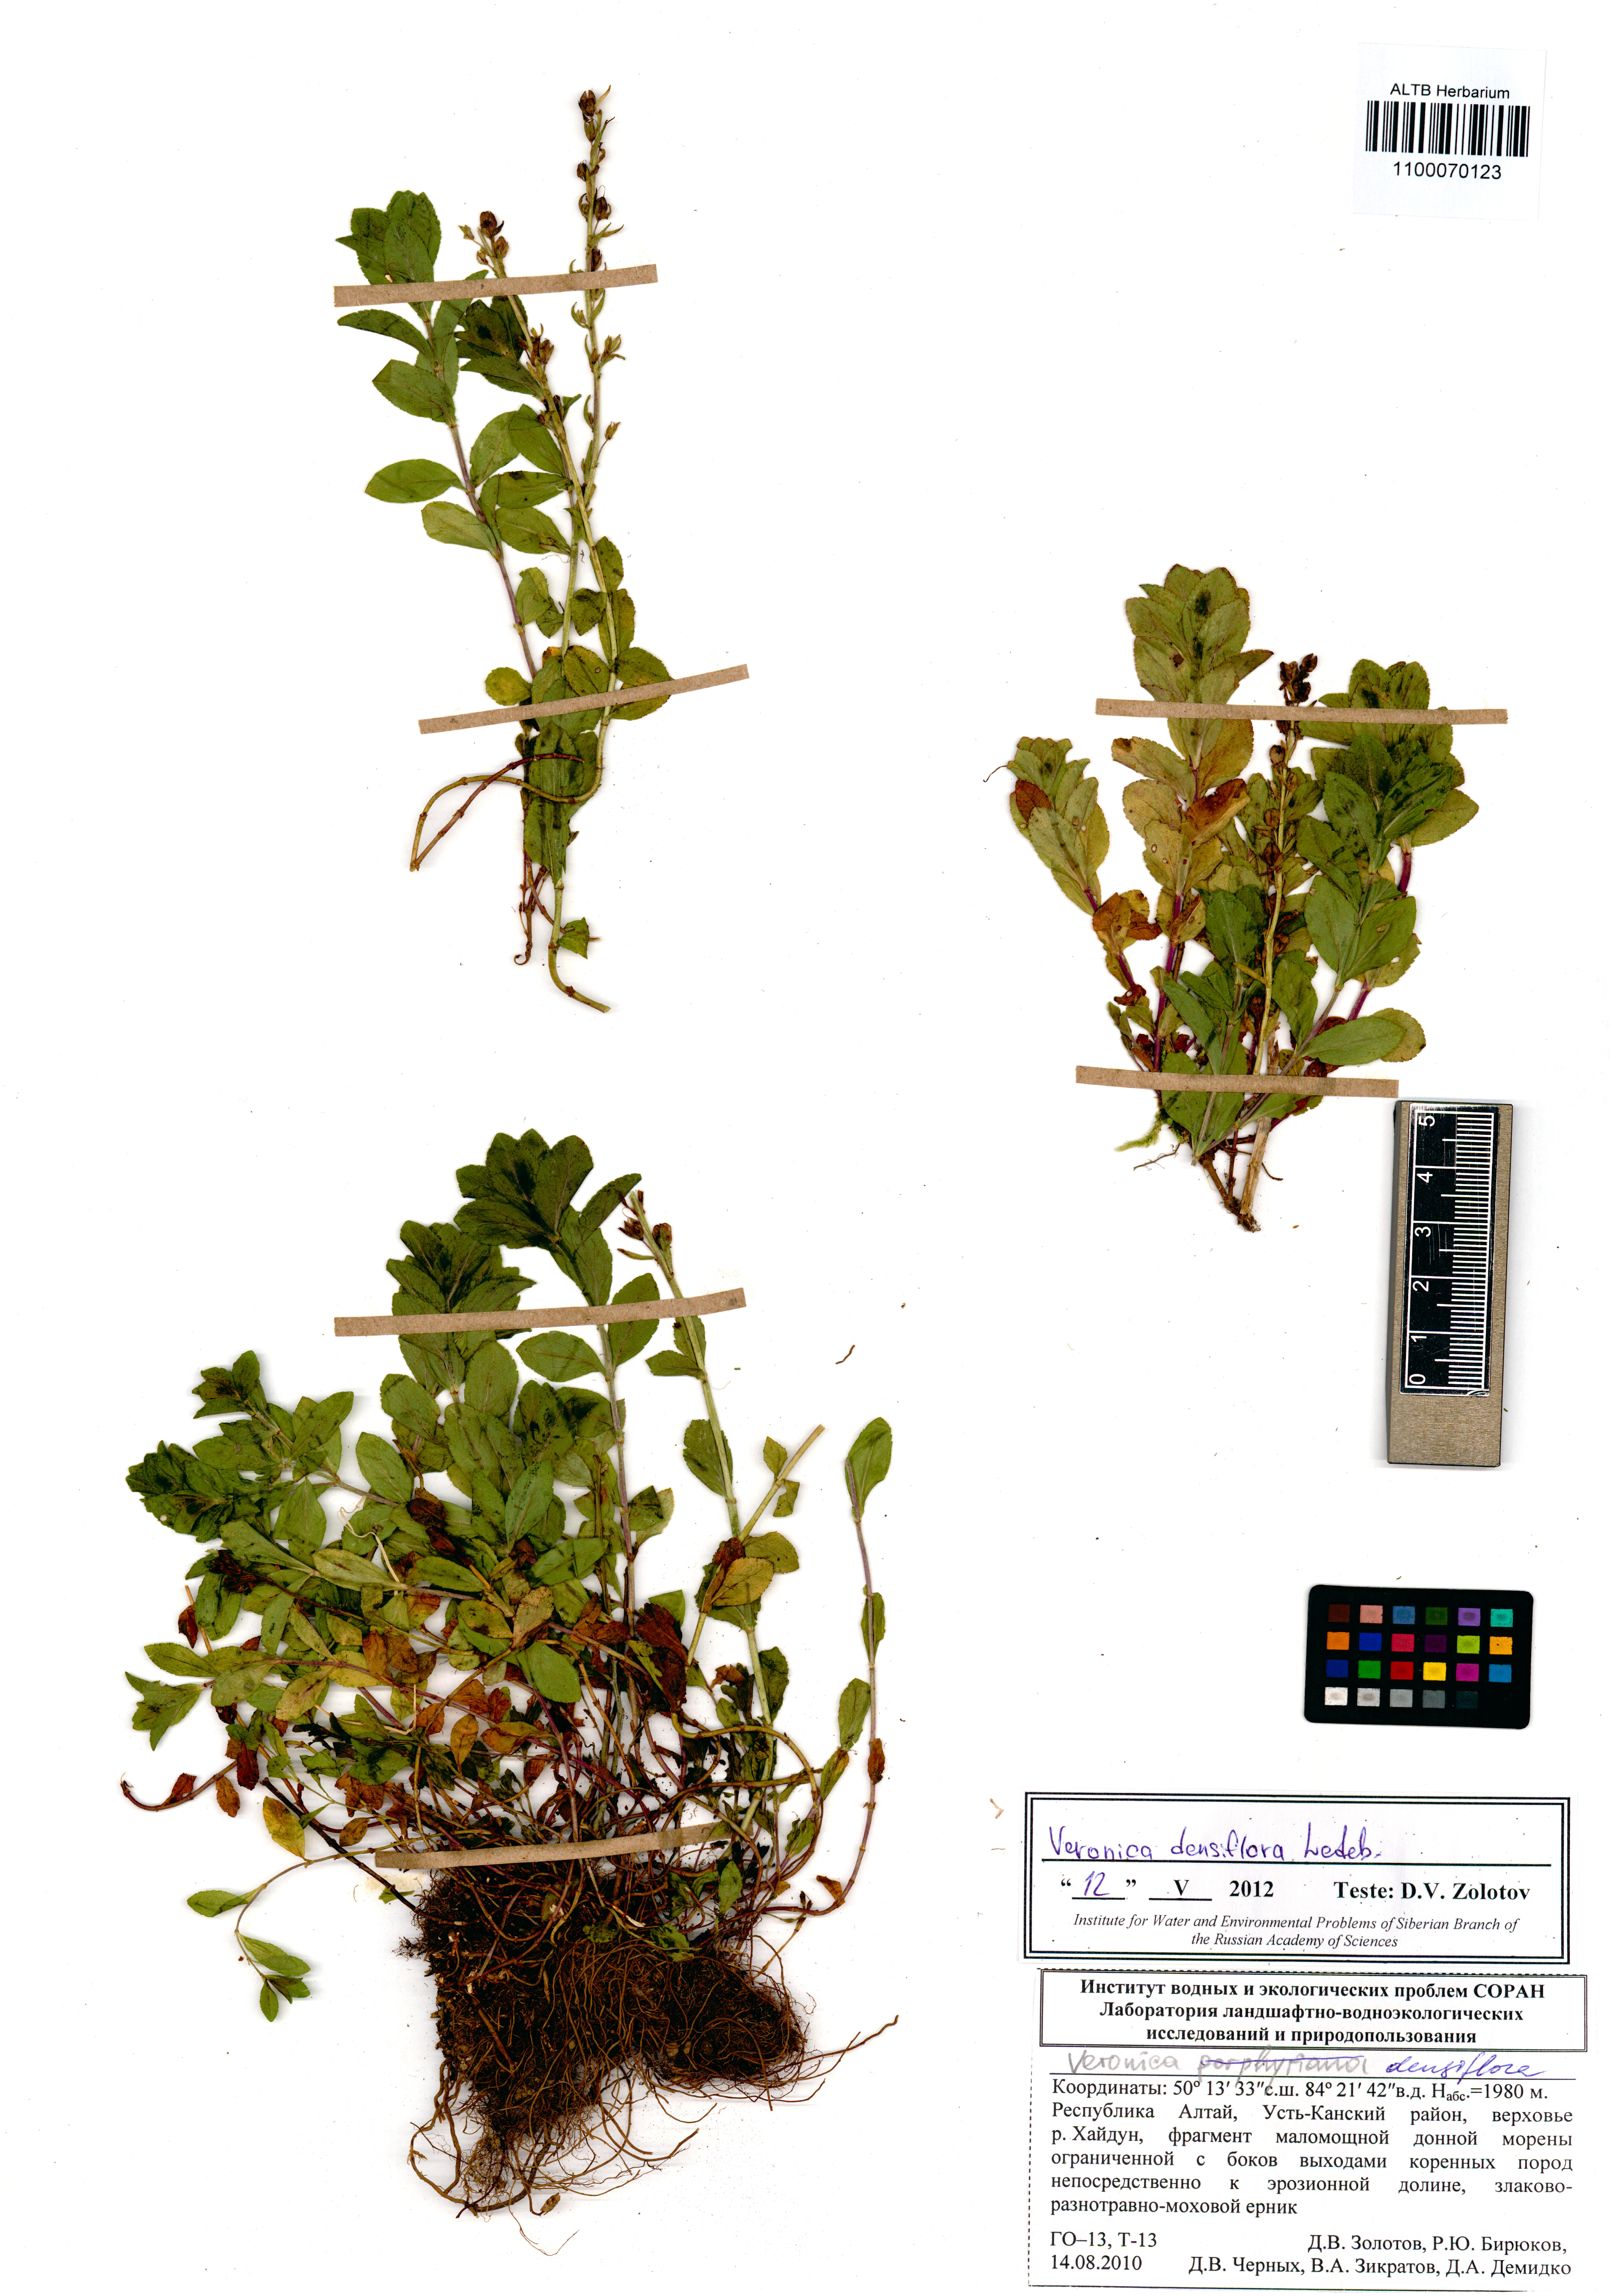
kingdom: Plantae
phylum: Tracheophyta
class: Magnoliopsida
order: Lamiales
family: Plantaginaceae
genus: Veronica
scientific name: Veronica densiflora
